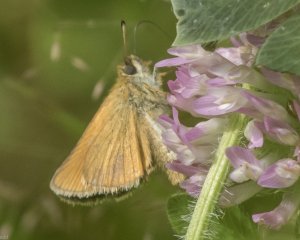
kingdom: Animalia
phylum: Arthropoda
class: Insecta
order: Lepidoptera
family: Hesperiidae
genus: Thymelicus
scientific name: Thymelicus lineola
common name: European Skipper
